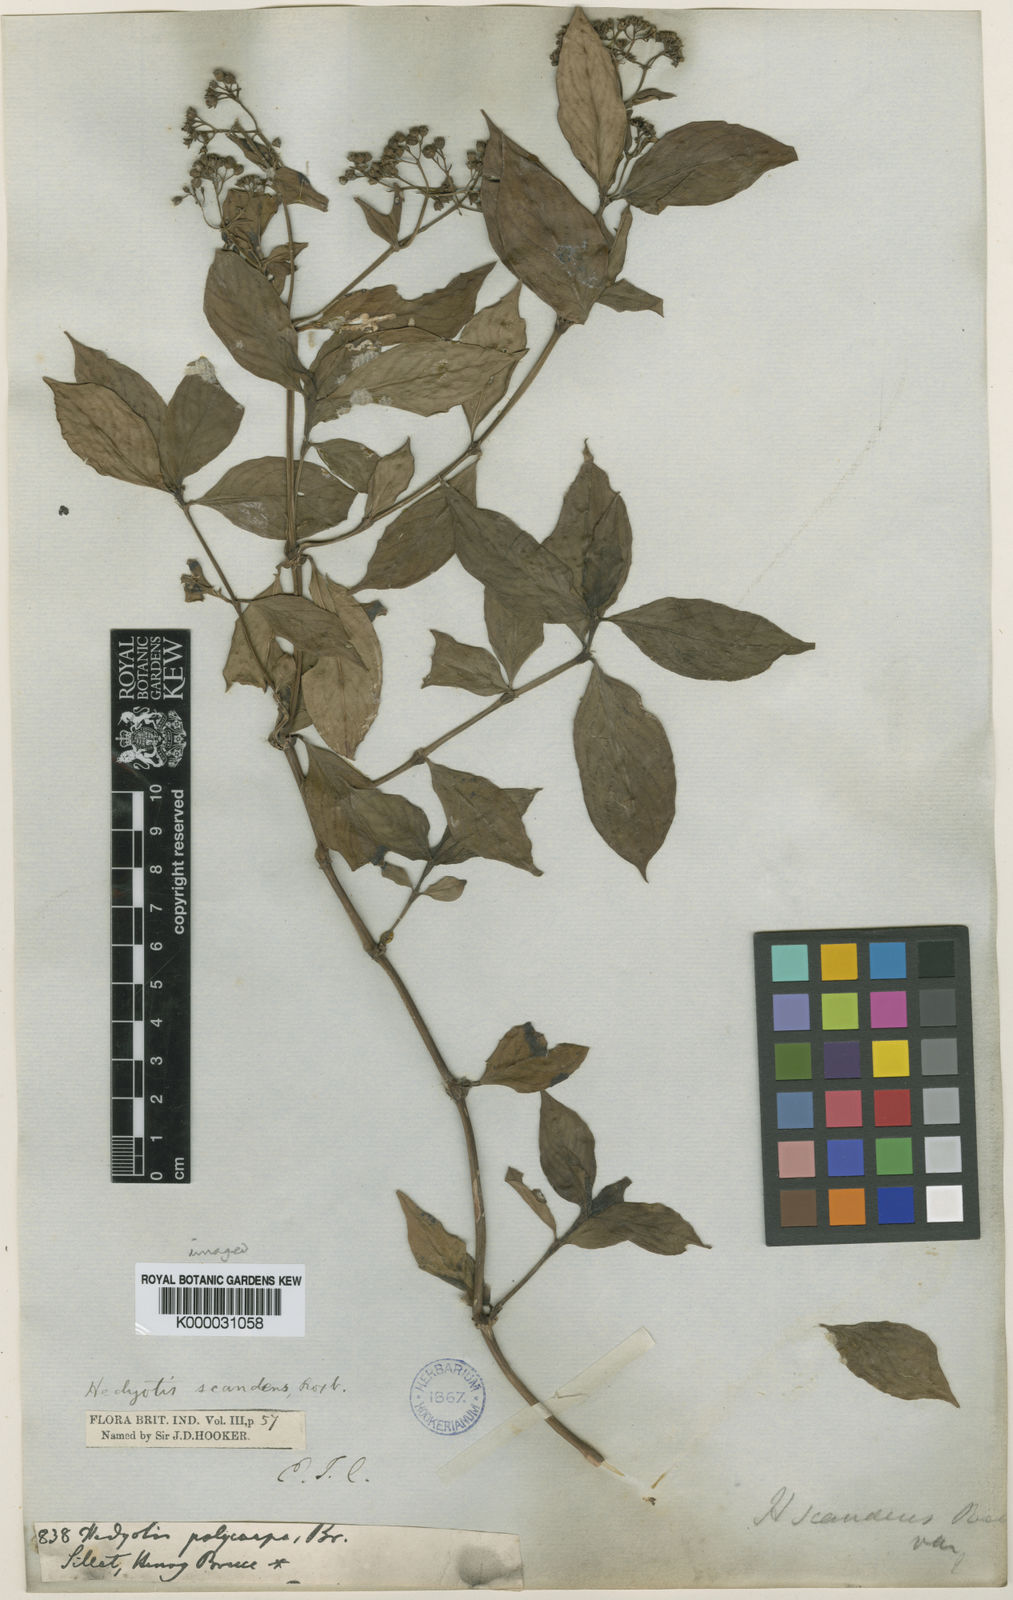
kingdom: Plantae
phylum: Tracheophyta
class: Magnoliopsida
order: Gentianales
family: Rubiaceae
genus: Dimetia
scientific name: Dimetia scandens
